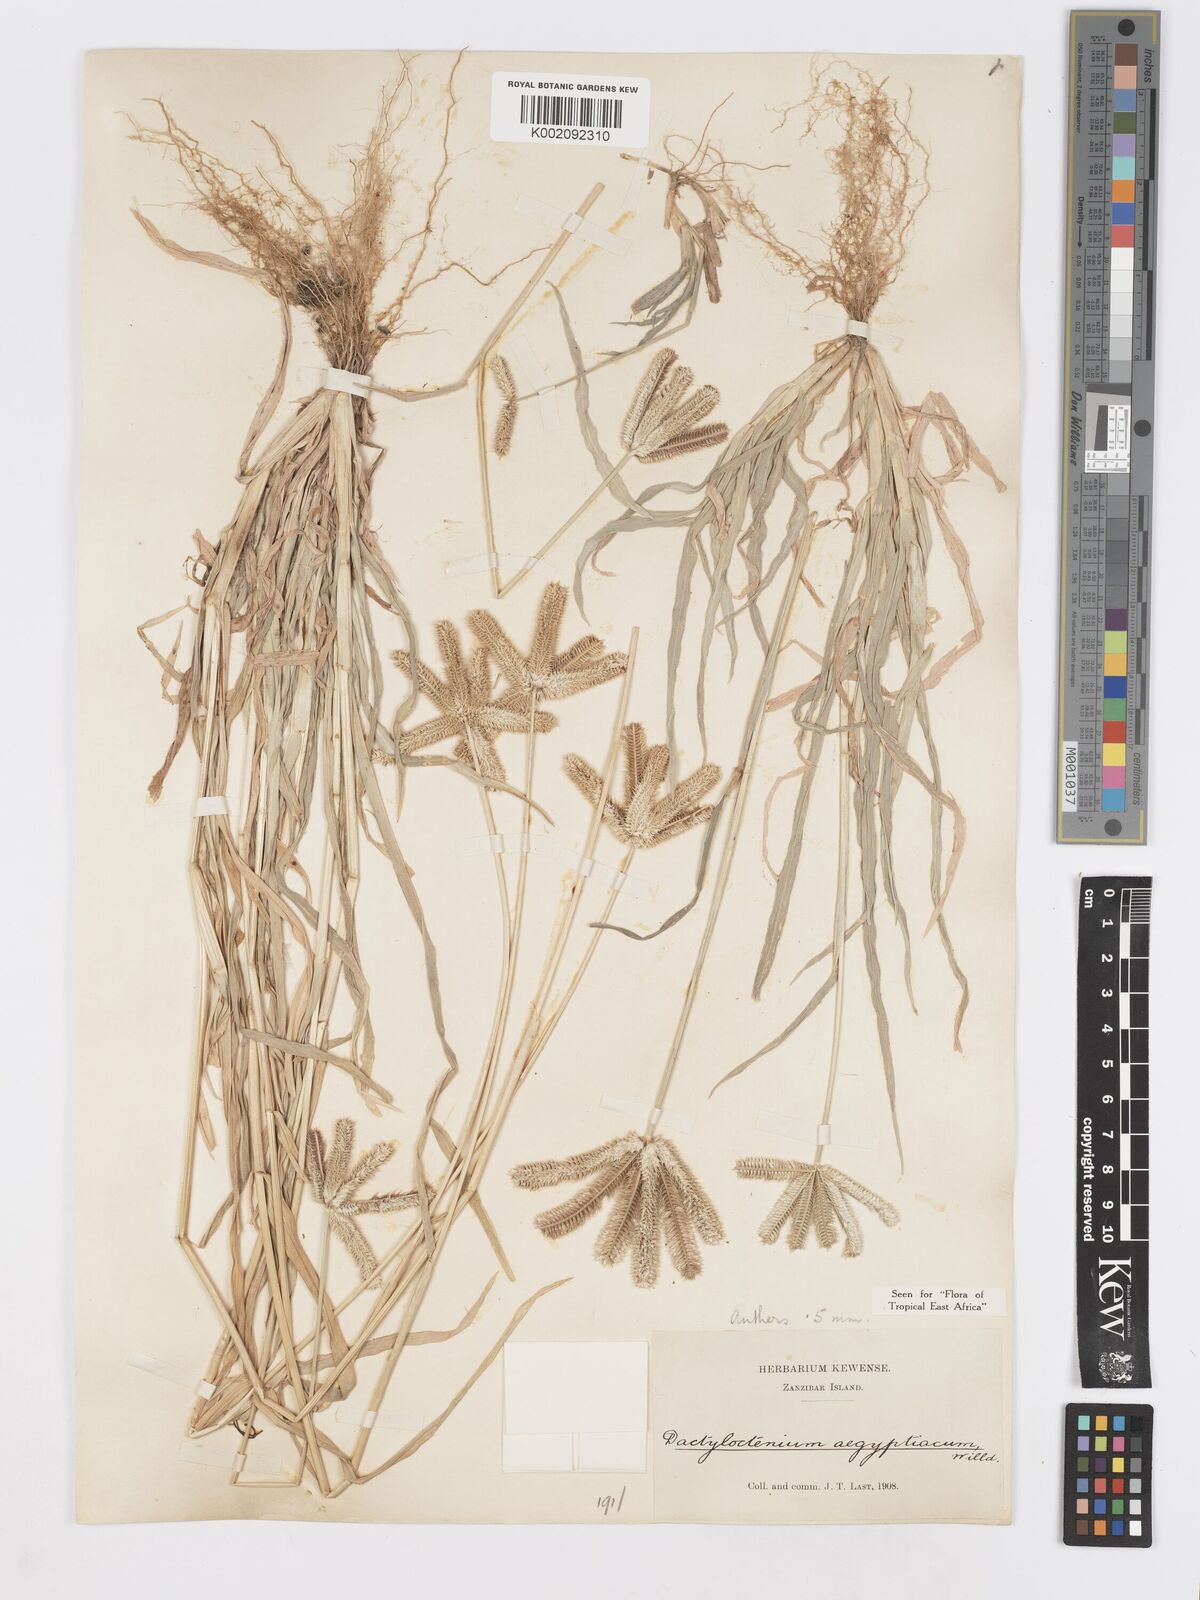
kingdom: Plantae
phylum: Tracheophyta
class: Liliopsida
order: Poales
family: Poaceae
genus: Dactyloctenium
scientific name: Dactyloctenium aristatum
